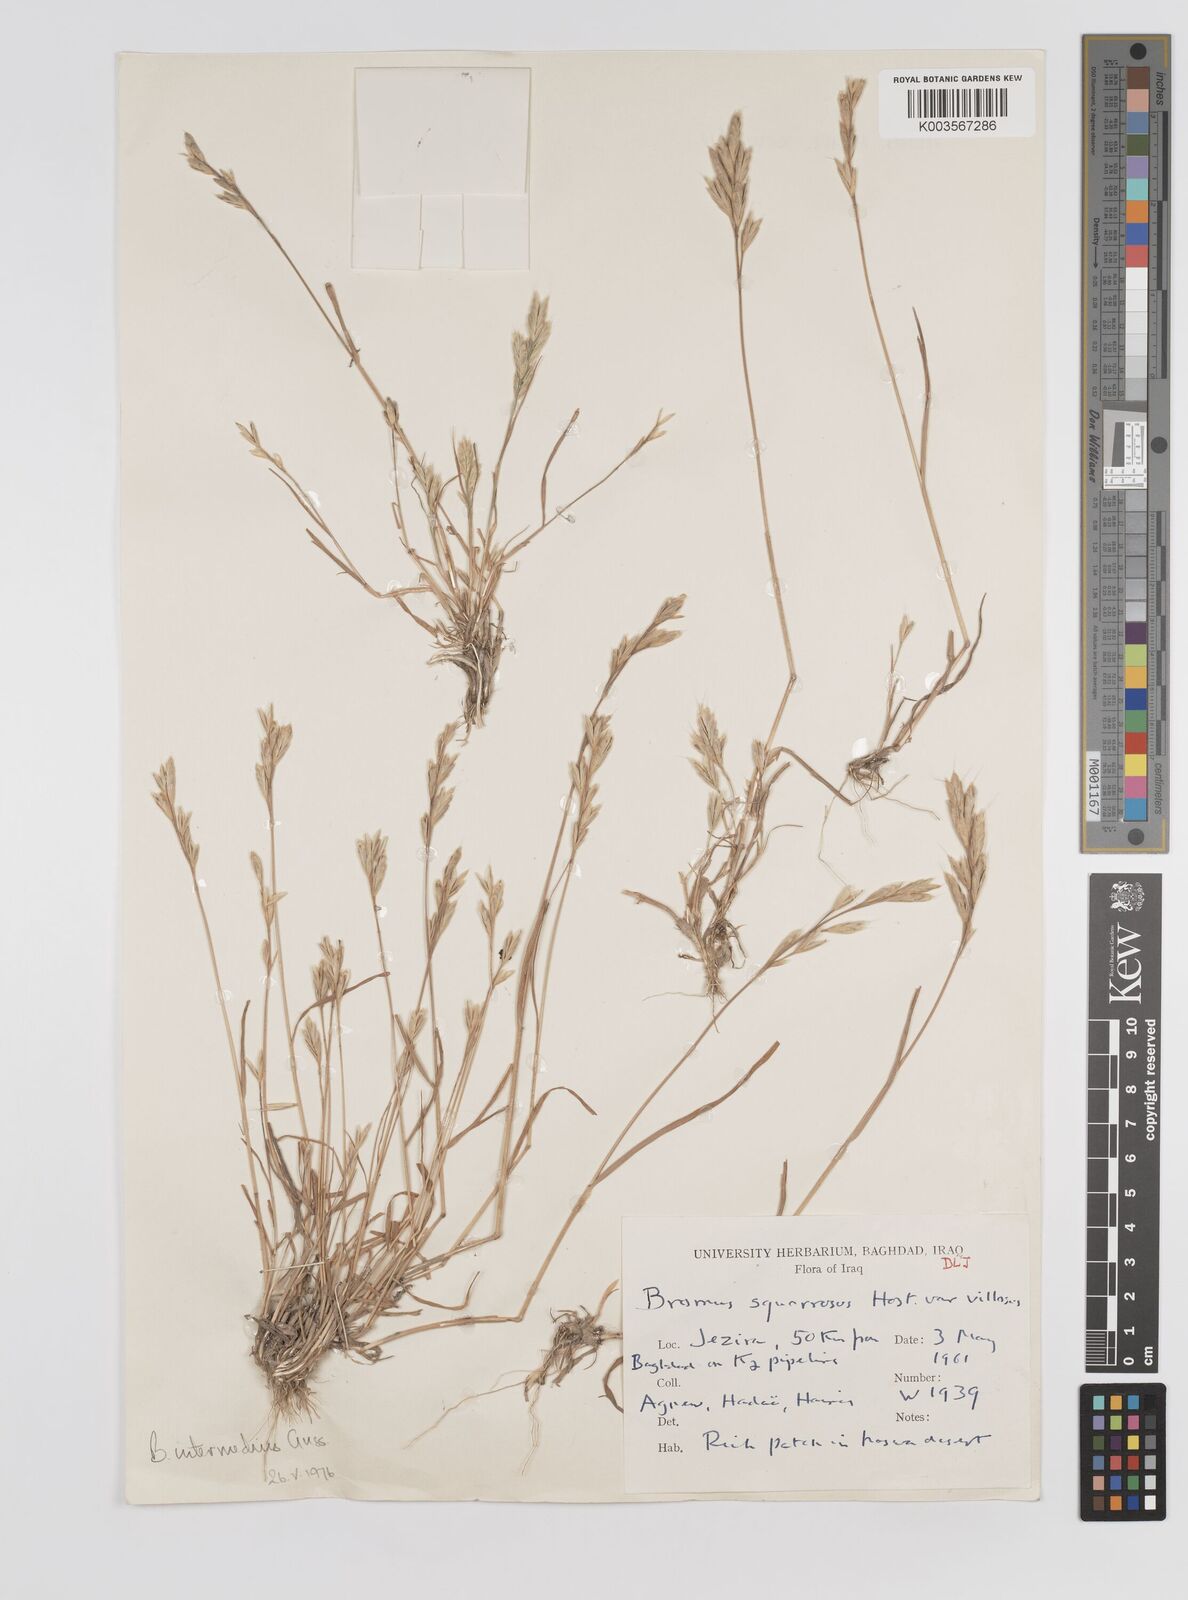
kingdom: Plantae
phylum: Tracheophyta
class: Liliopsida
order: Poales
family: Poaceae
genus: Bromus
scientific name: Bromus intermedius
